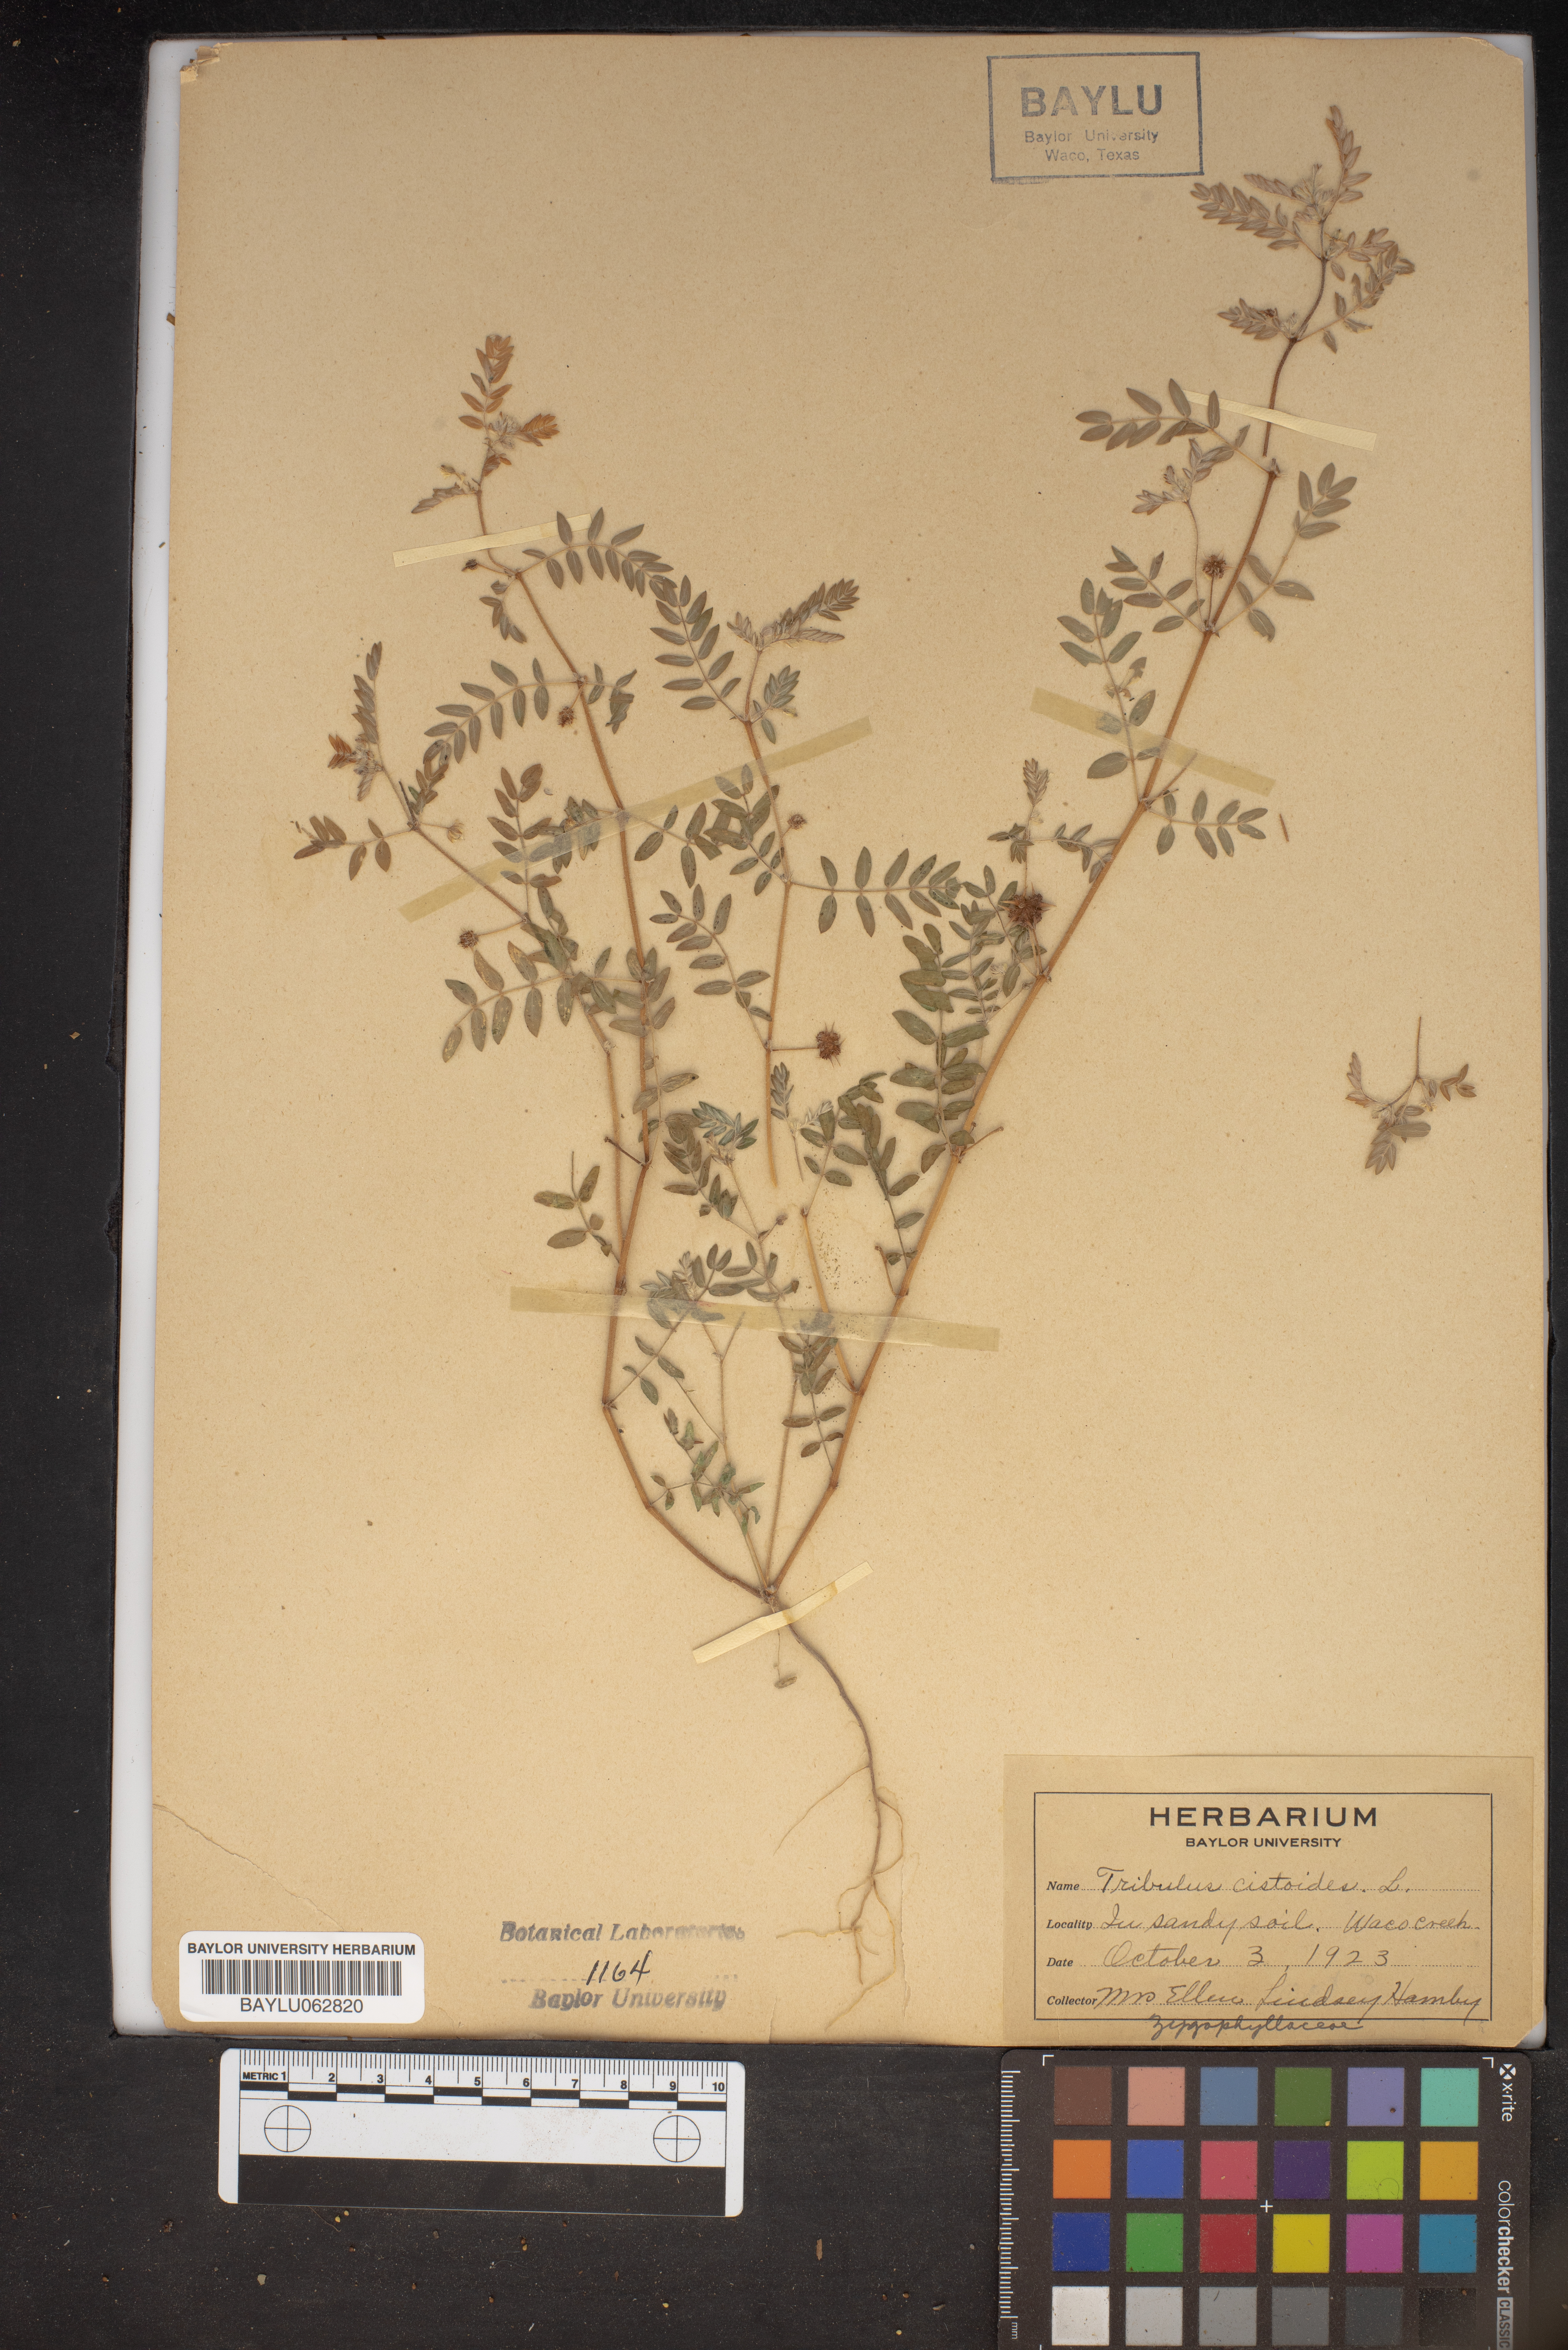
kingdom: Plantae
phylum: Tracheophyta
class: Magnoliopsida
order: Zygophyllales
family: Zygophyllaceae
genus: Tribulus
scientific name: Tribulus cistoides
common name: Jamaican feverplant
